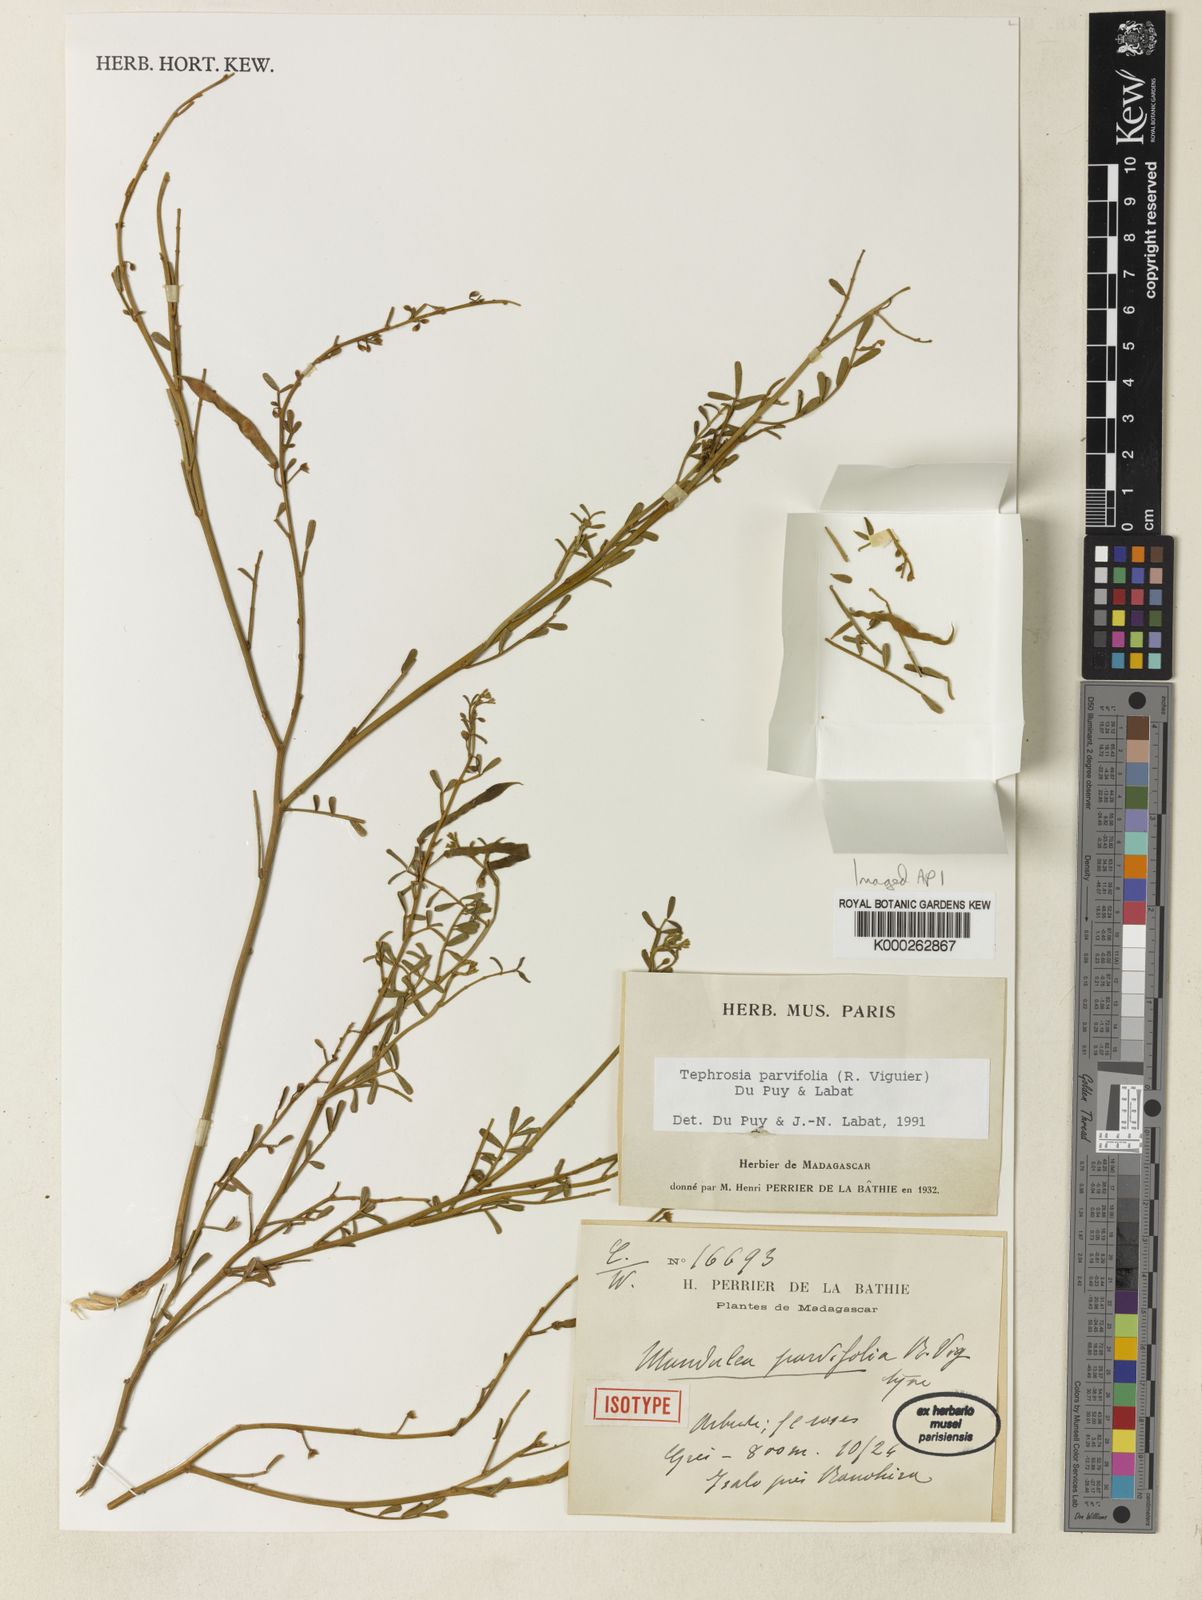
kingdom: Plantae
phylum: Tracheophyta
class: Magnoliopsida
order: Fabales
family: Fabaceae
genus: Tephrosia
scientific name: Tephrosia parvifolia
